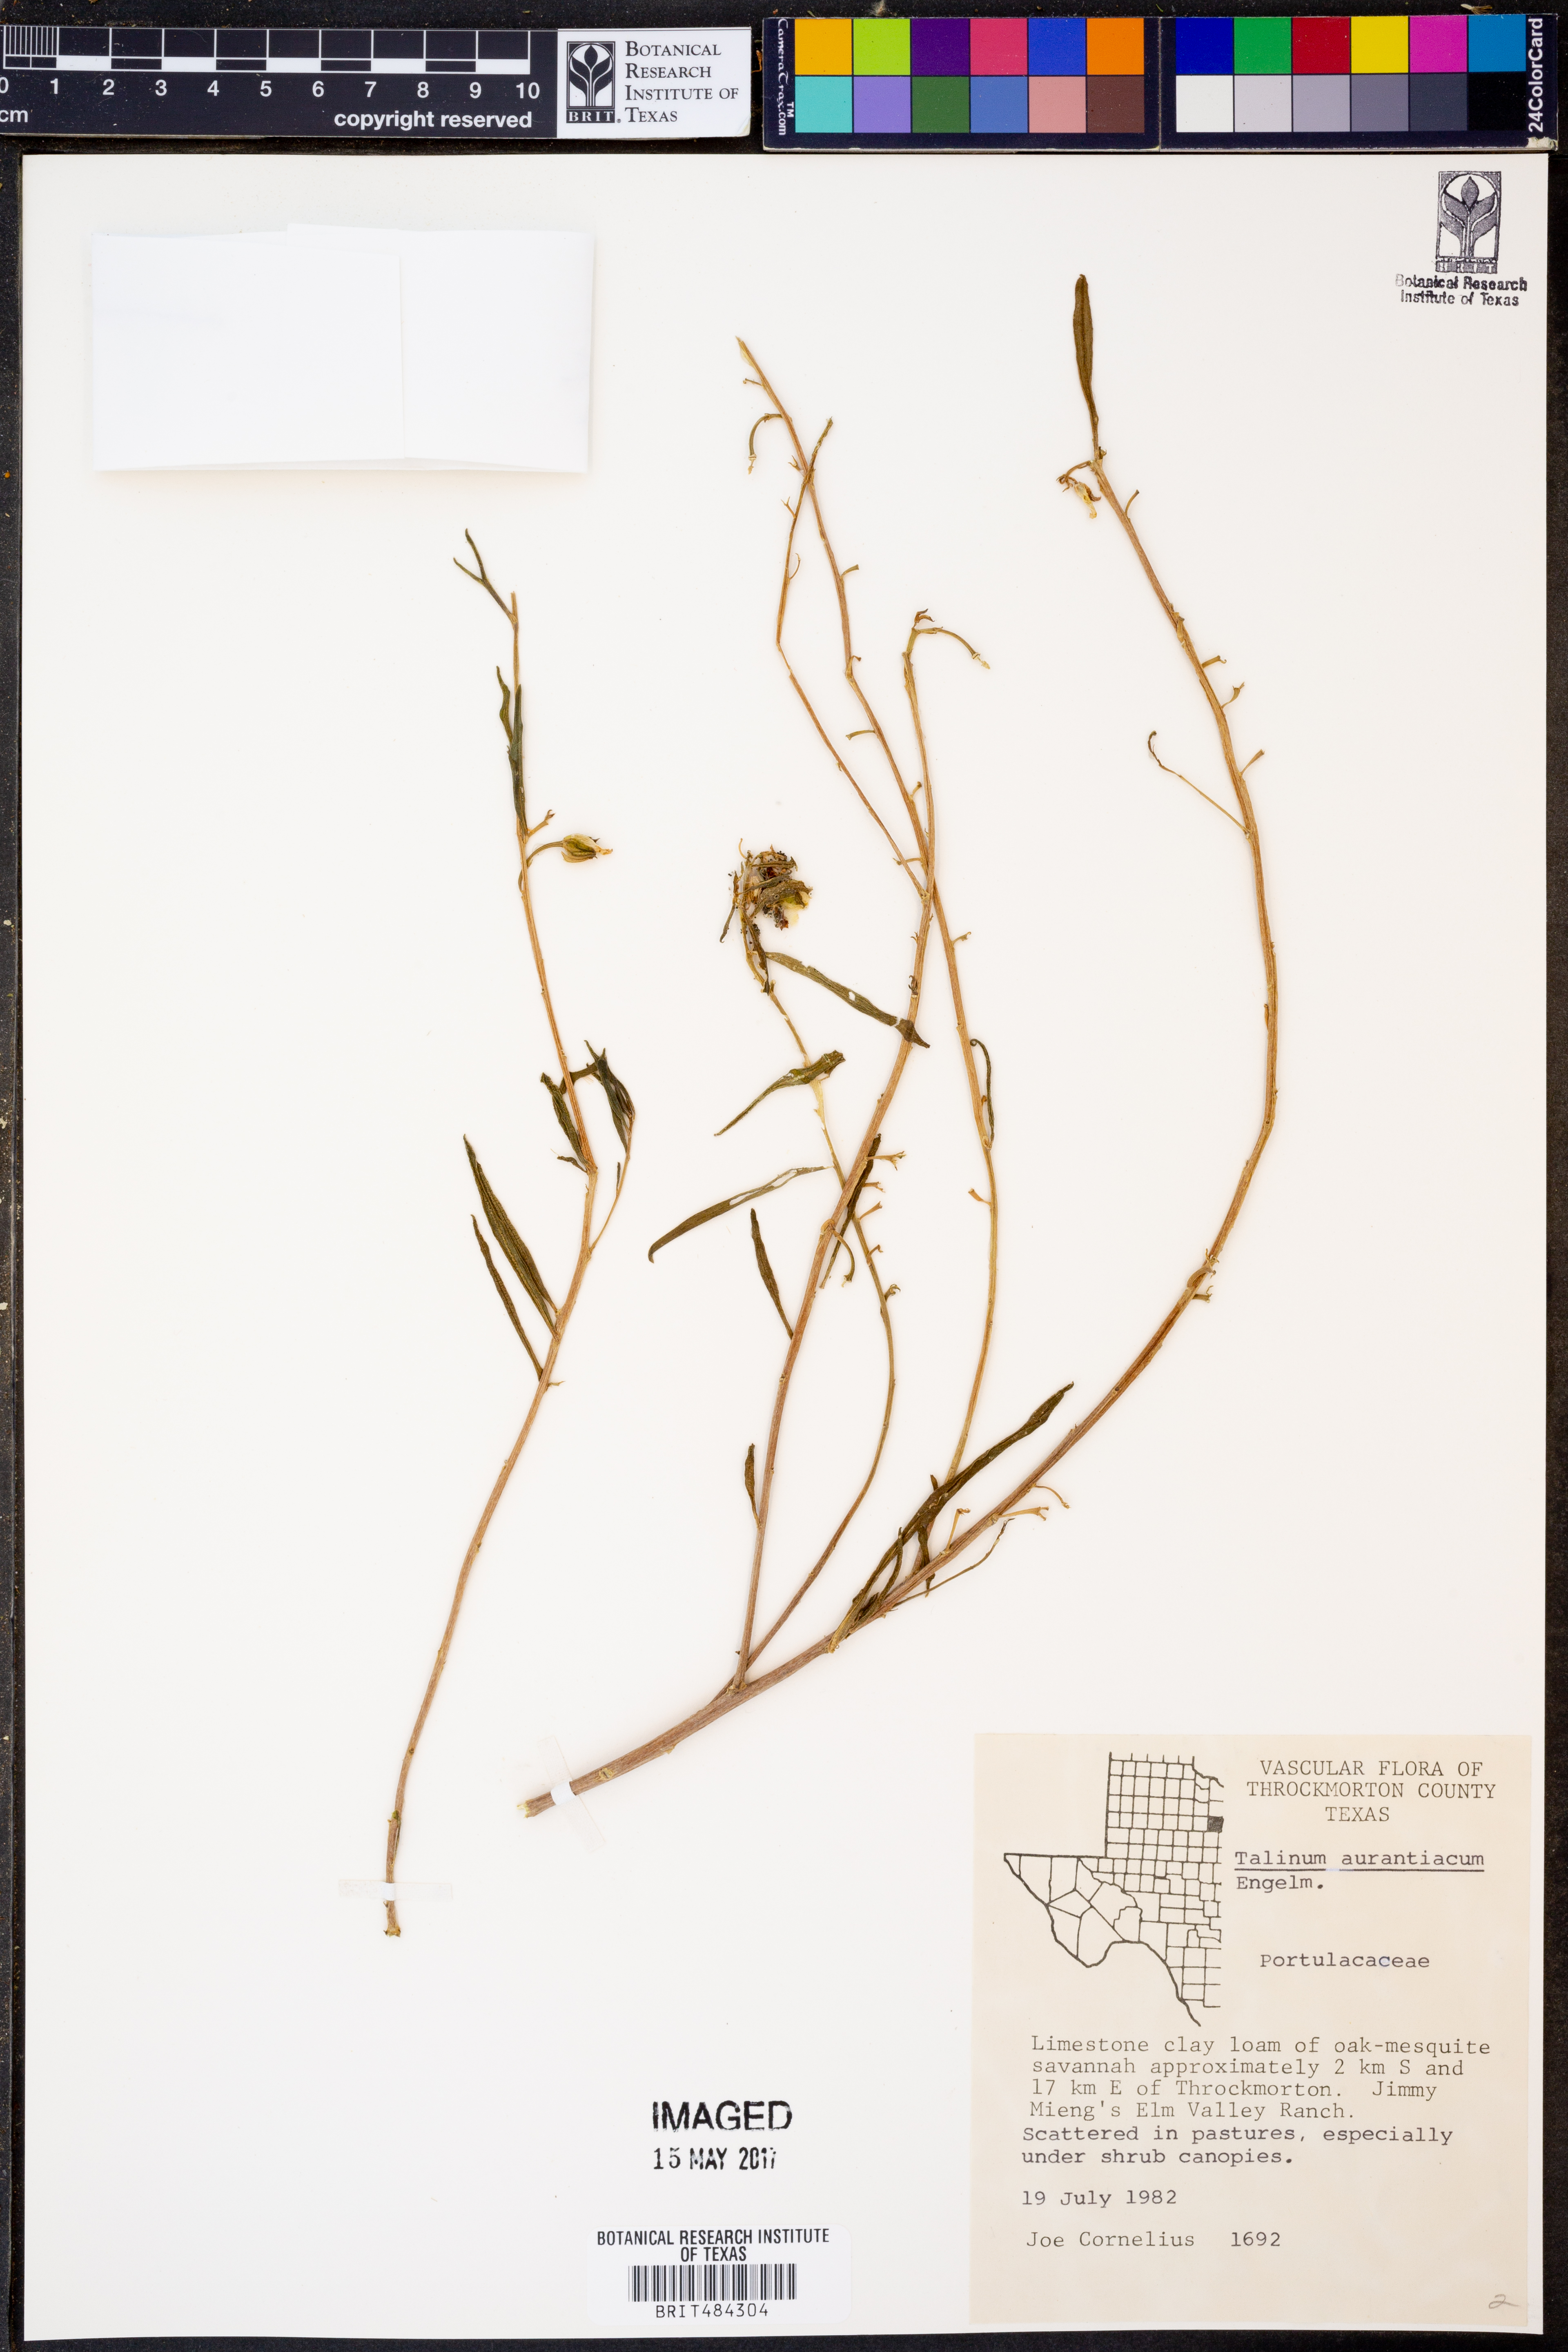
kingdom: Plantae
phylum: Tracheophyta
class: Magnoliopsida
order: Caryophyllales
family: Montiaceae
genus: Phemeranthus
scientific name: Phemeranthus aurantiacus
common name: Orange fameflower
